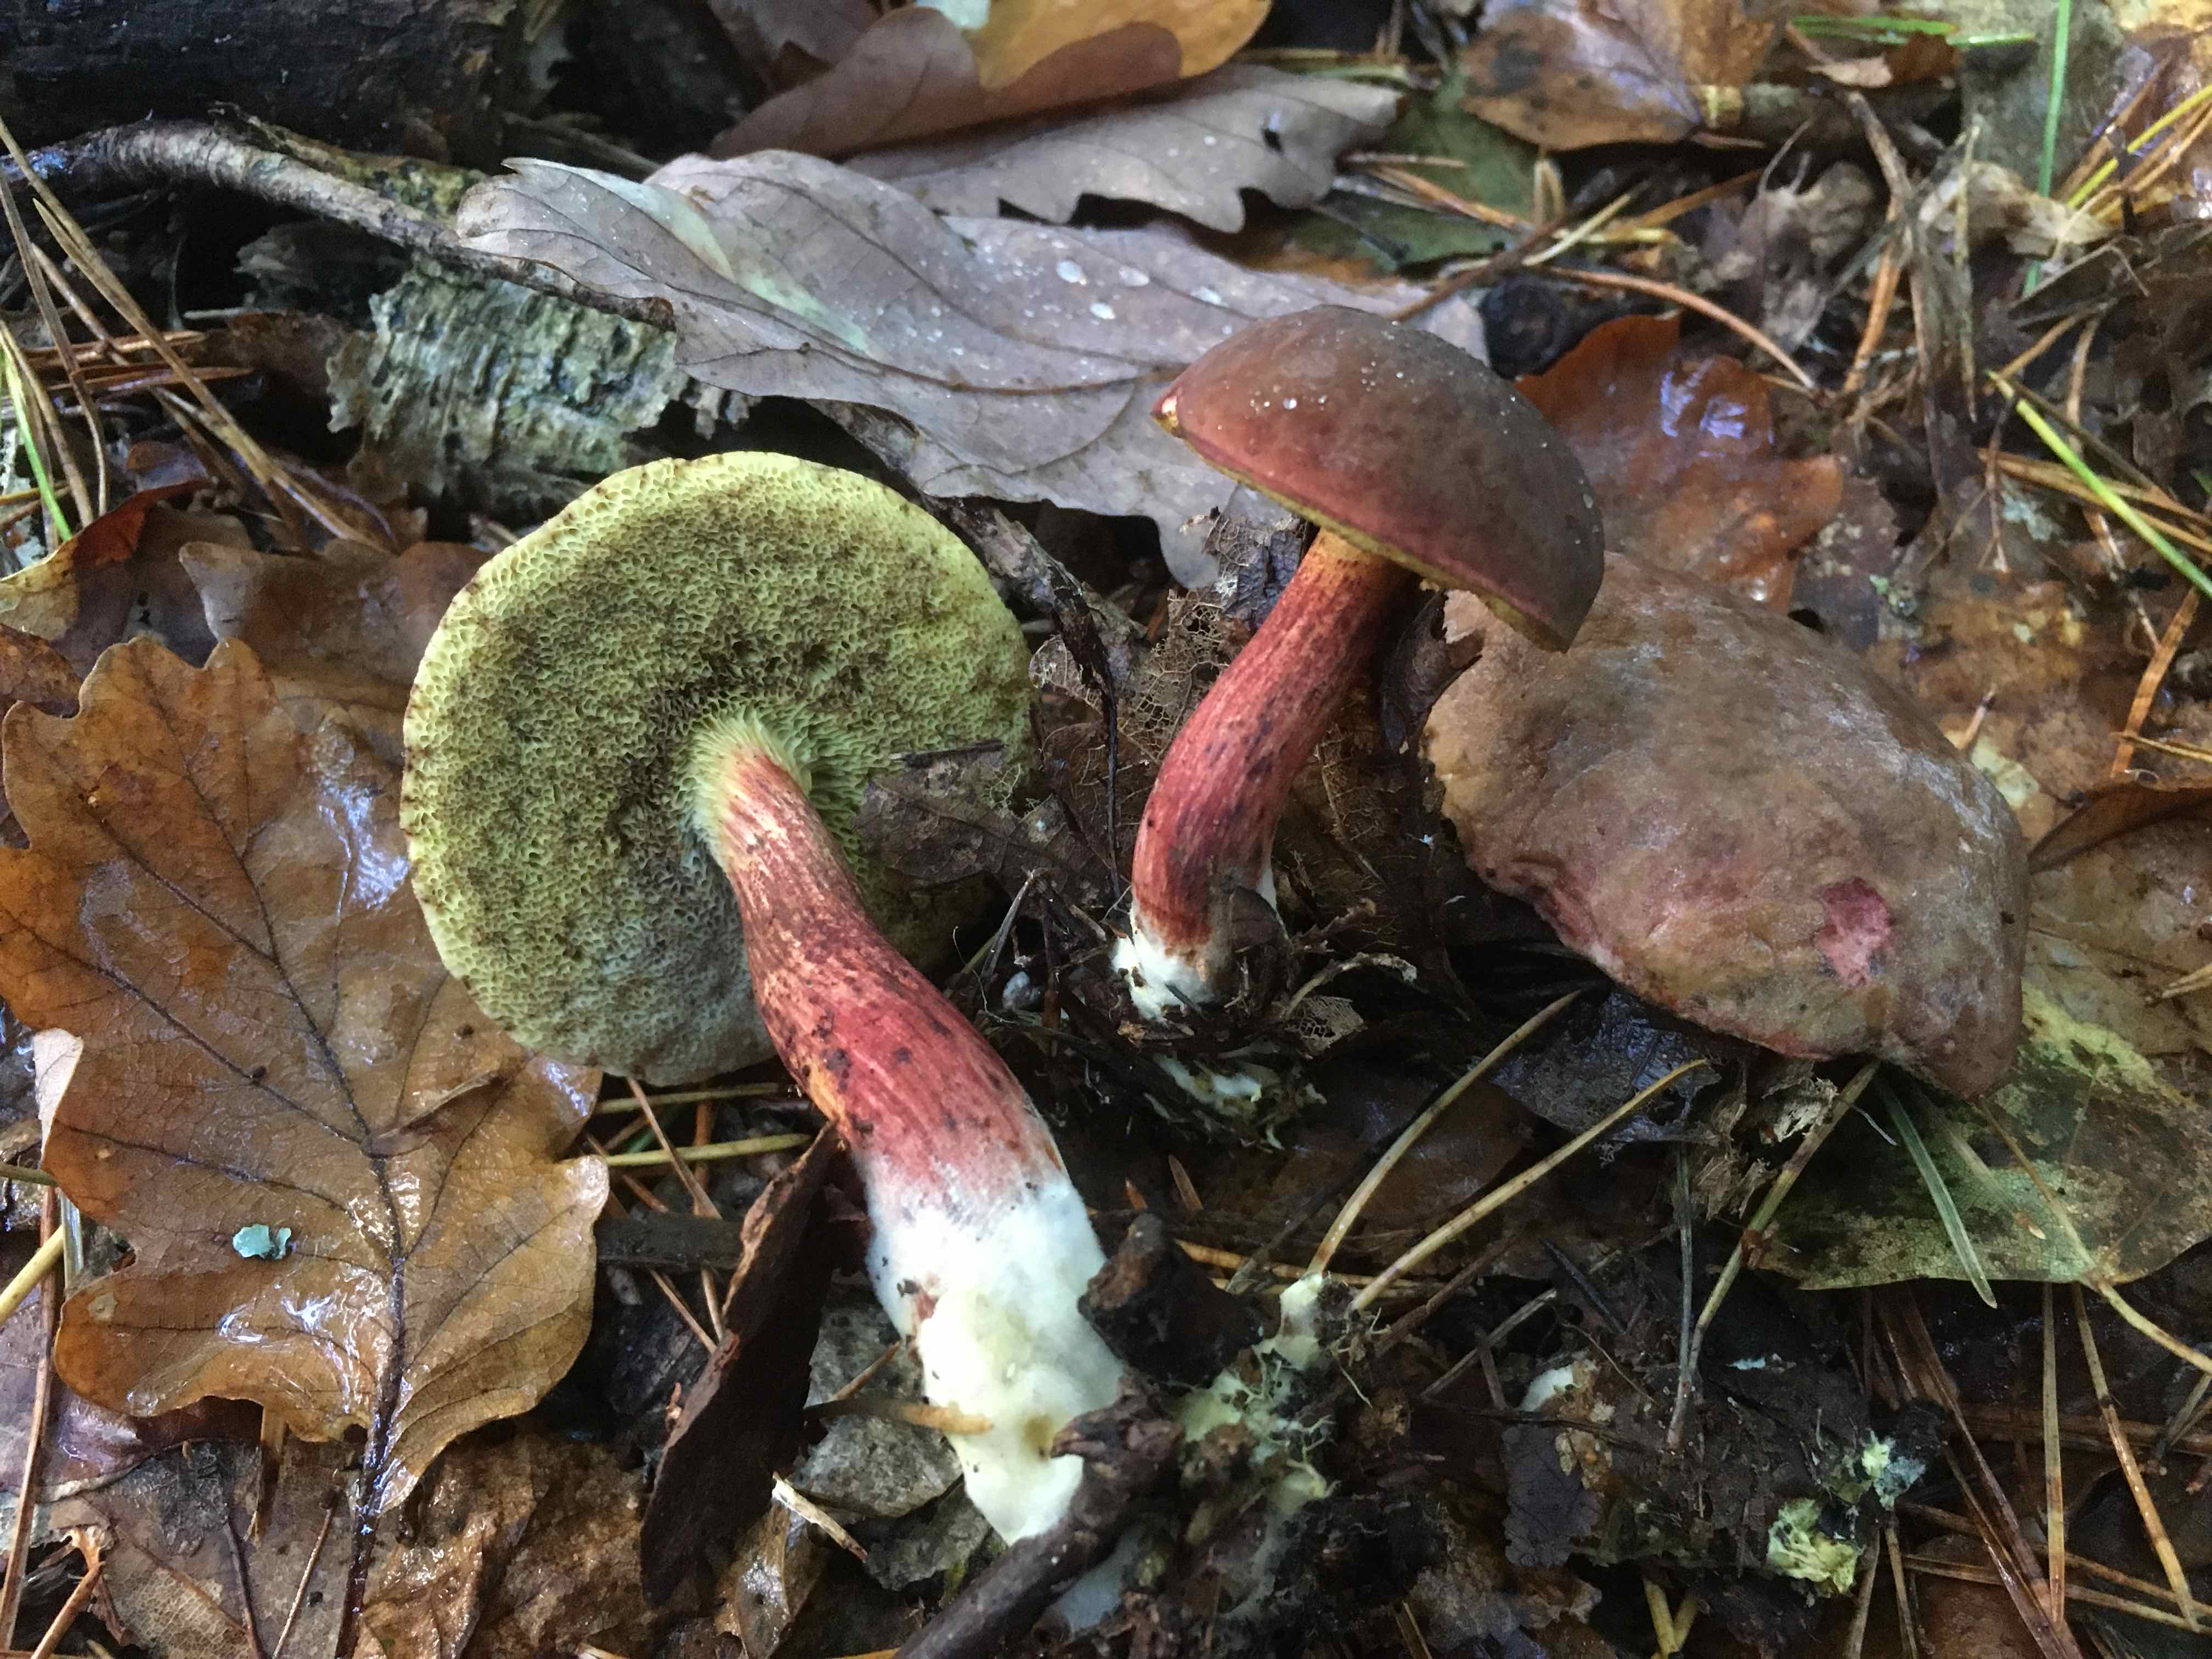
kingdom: Fungi
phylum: Basidiomycota
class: Agaricomycetes
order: Boletales
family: Boletaceae
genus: Xerocomellus
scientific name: Xerocomellus pruinatus
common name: dugget rørhat
